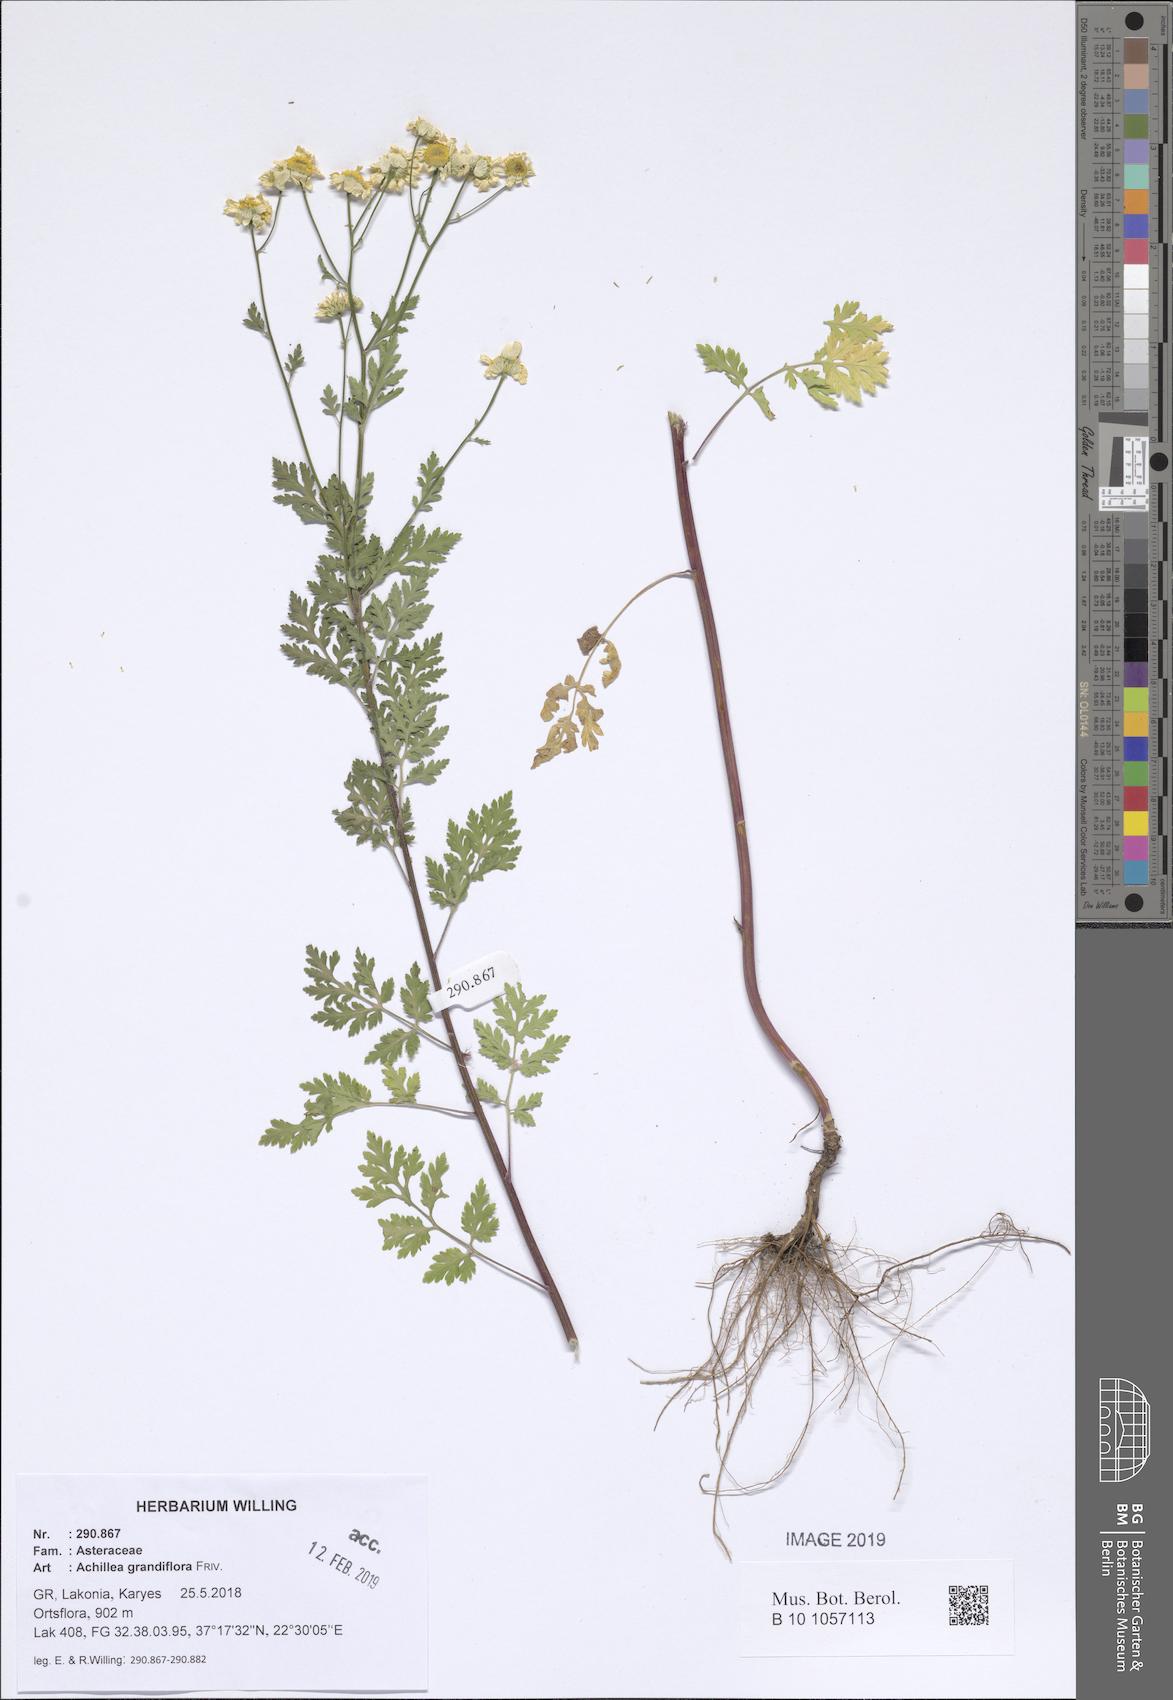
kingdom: Plantae
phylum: Tracheophyta
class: Magnoliopsida
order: Asterales
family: Asteraceae
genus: Achillea
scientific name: Achillea grandifolia
